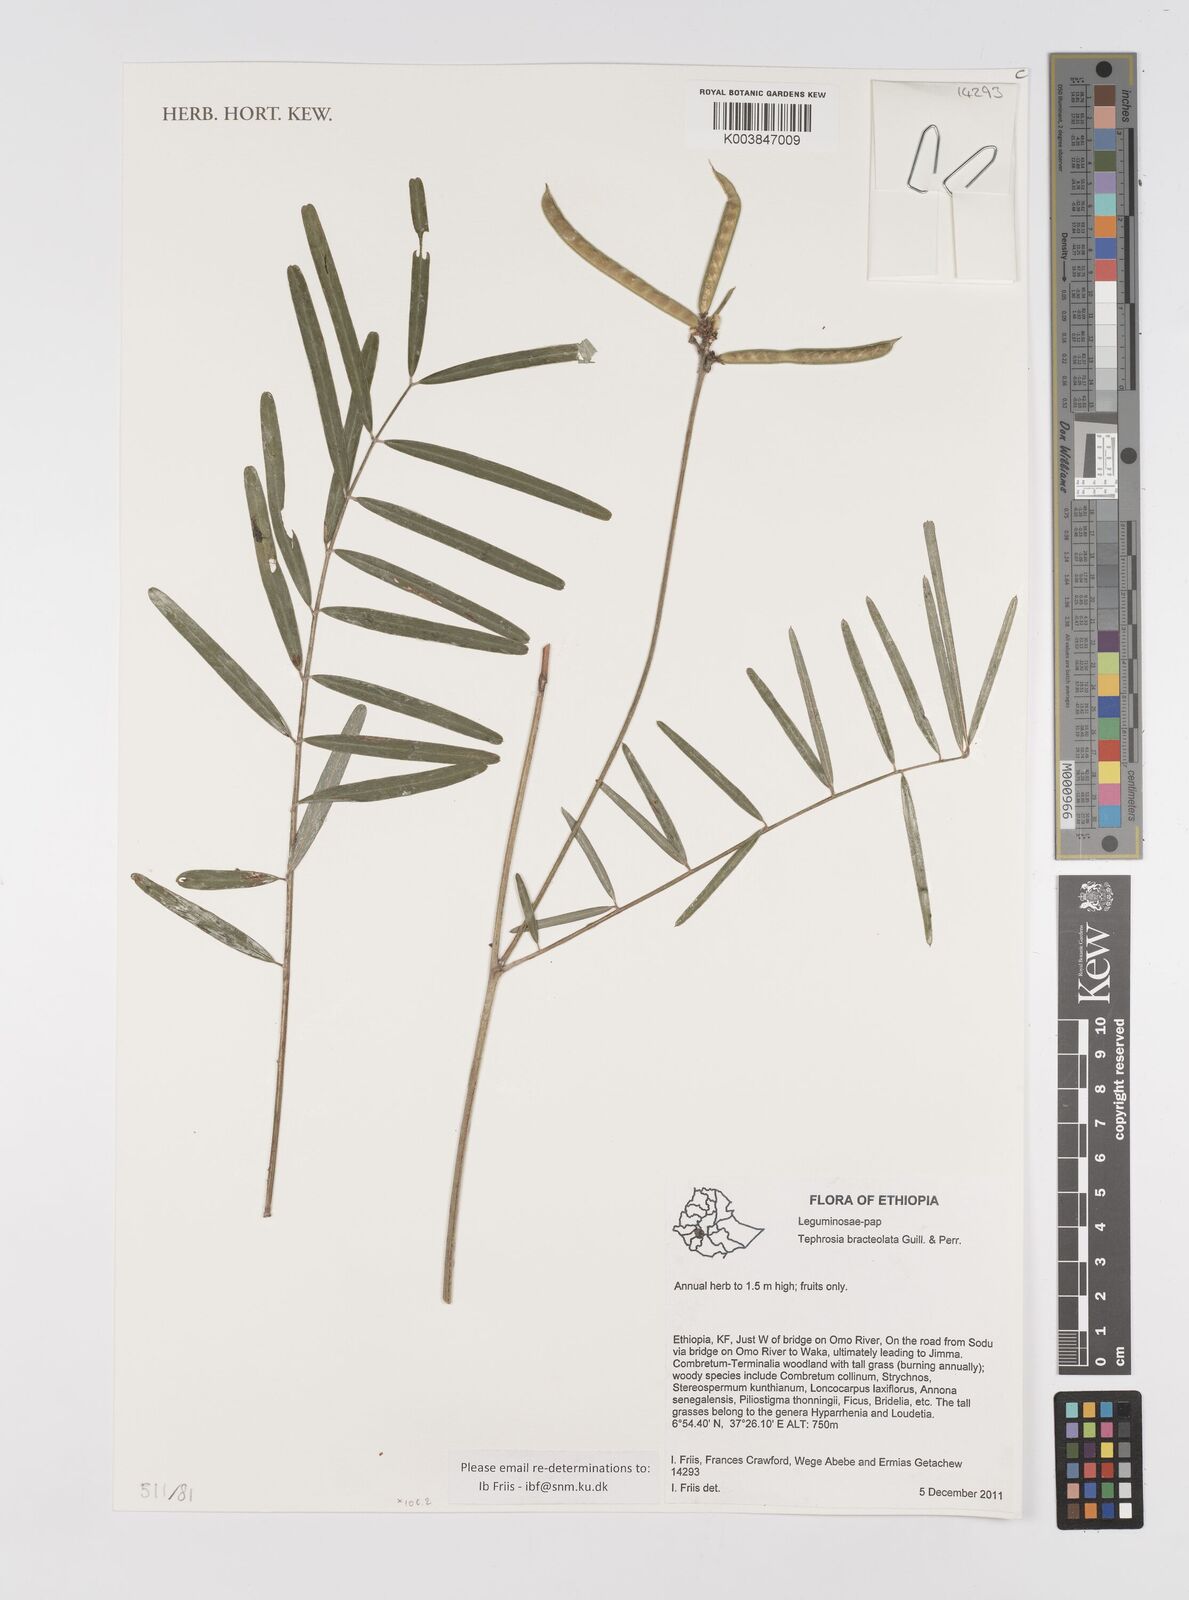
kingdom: Plantae
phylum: Tracheophyta
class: Magnoliopsida
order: Fabales
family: Fabaceae
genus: Tephrosia
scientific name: Tephrosia bracteolata
